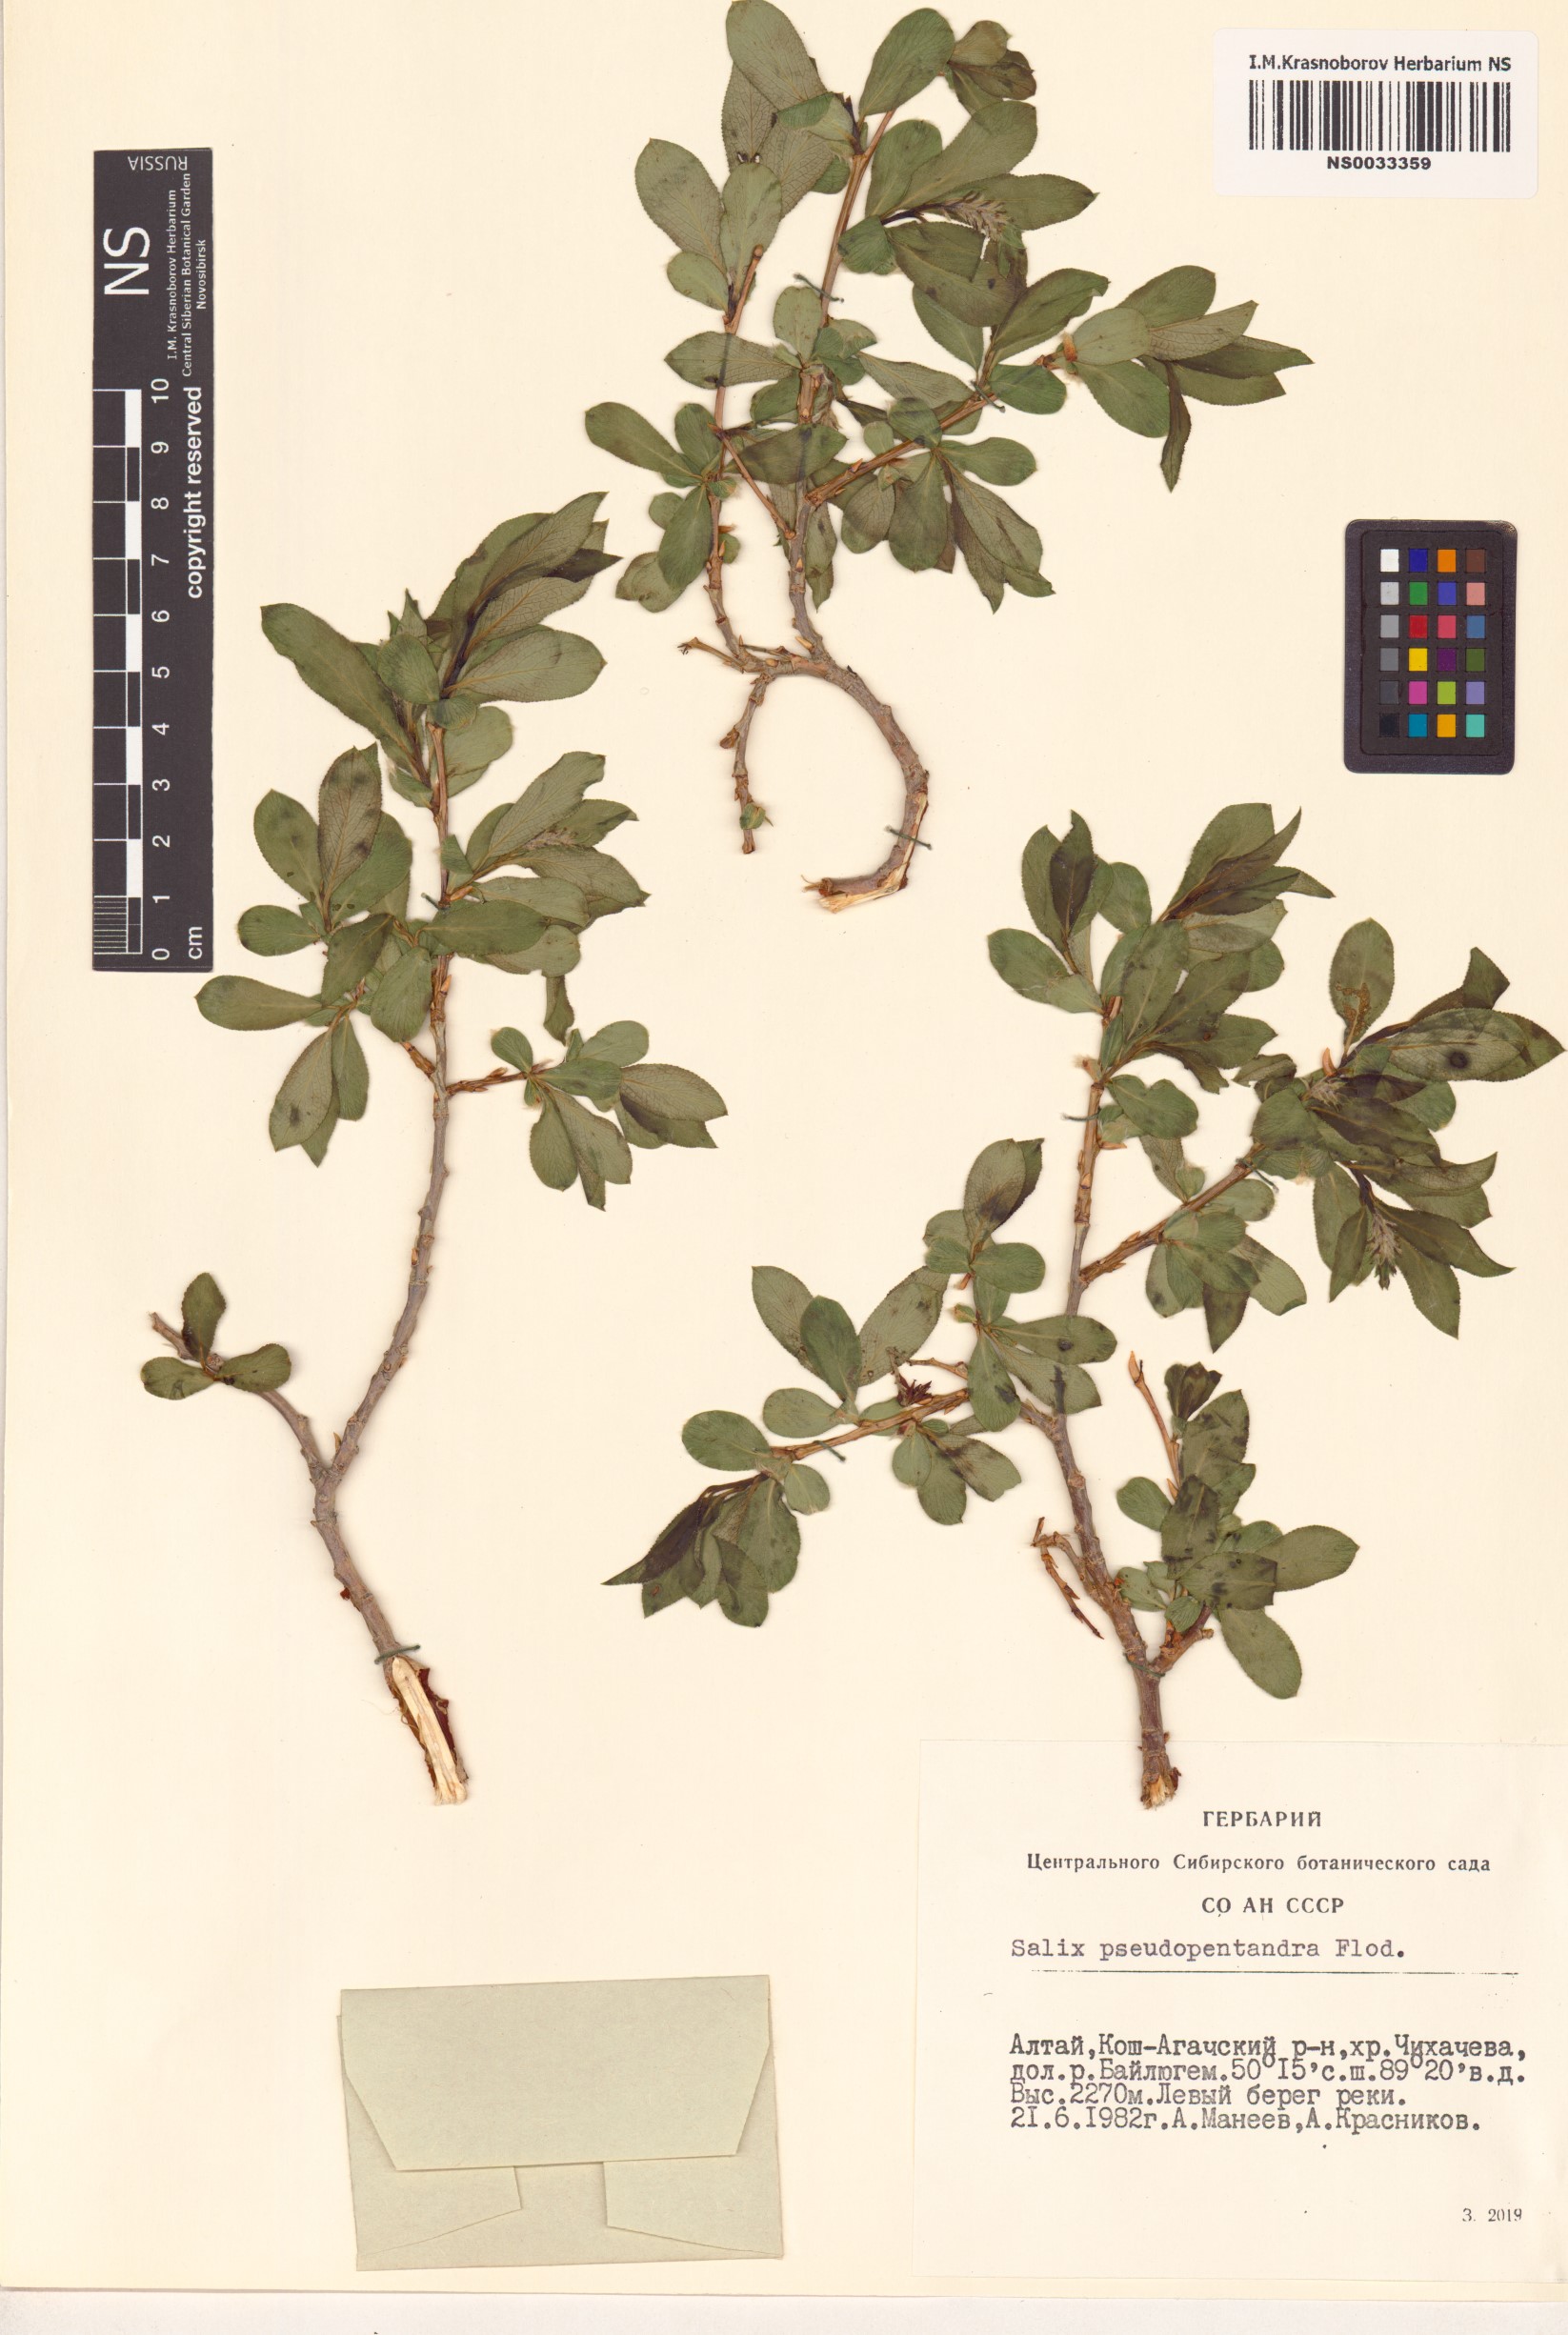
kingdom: Plantae
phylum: Tracheophyta
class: Magnoliopsida
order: Malpighiales
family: Salicaceae
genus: Salix
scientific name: Salix pseudopentandra
